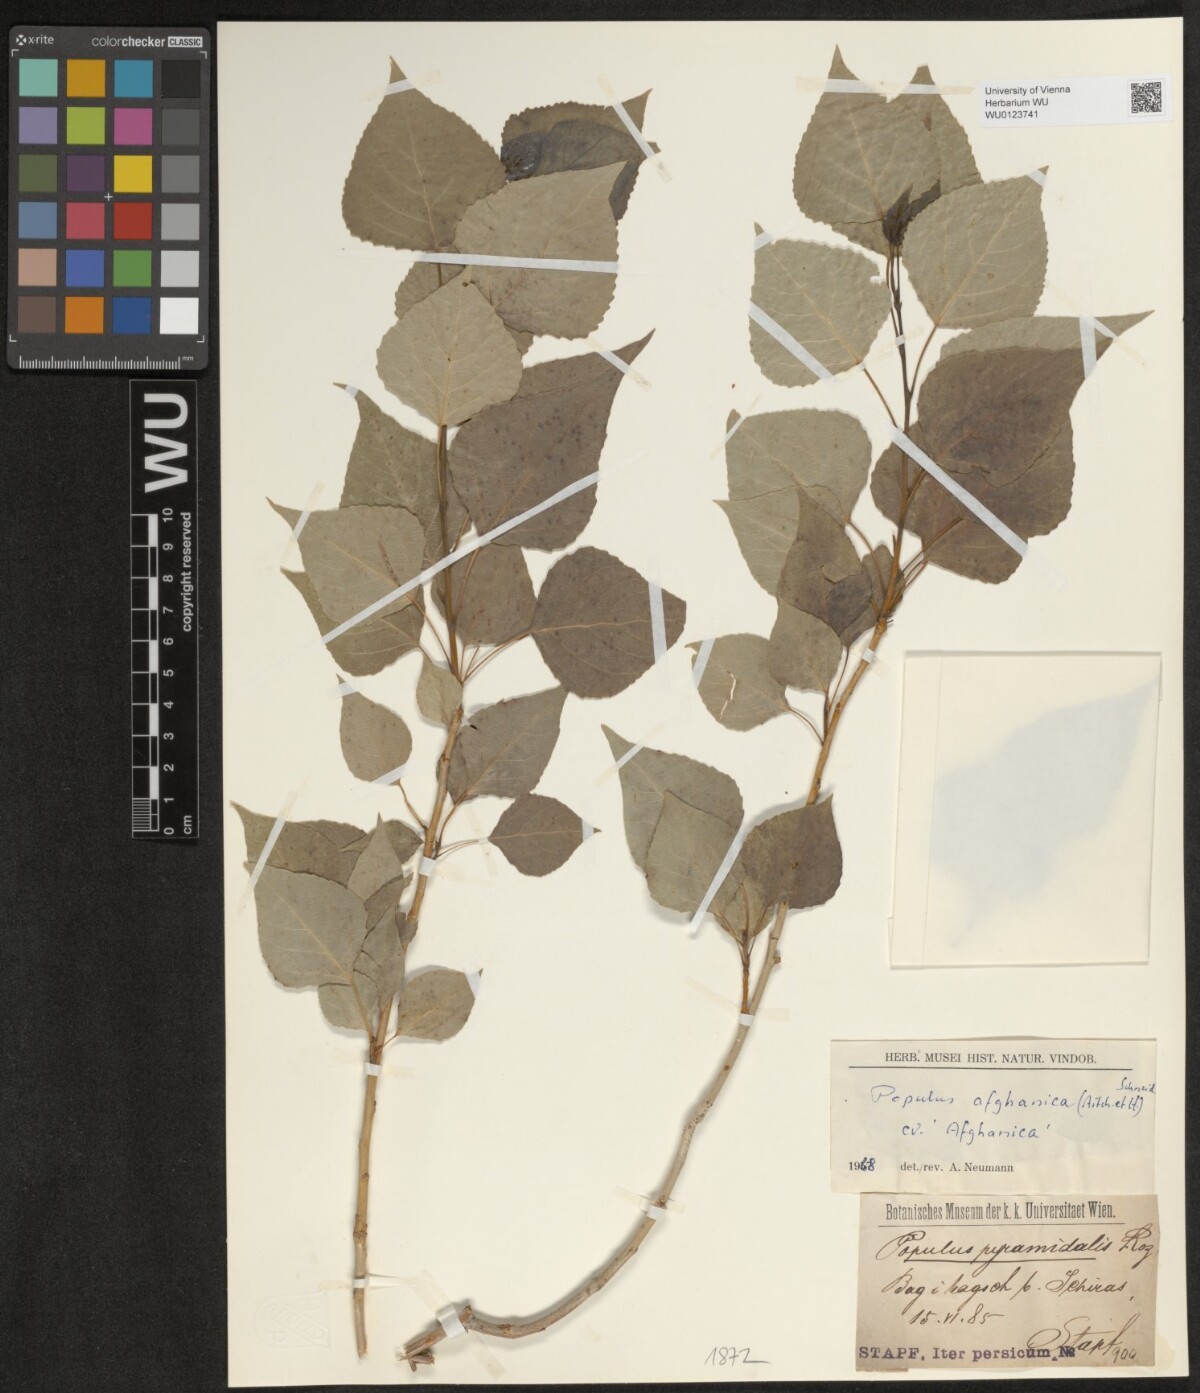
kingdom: Plantae
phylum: Tracheophyta
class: Magnoliopsida
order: Malpighiales
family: Salicaceae
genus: Populus
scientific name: Populus nigra
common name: Black poplar
